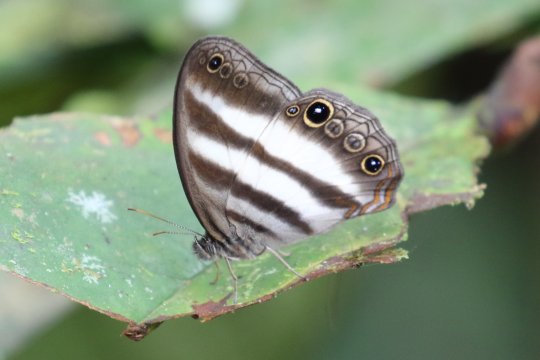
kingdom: Animalia
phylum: Arthropoda
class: Insecta
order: Lepidoptera
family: Nymphalidae
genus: Pareuptychia
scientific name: Pareuptychia hesione
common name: White Satyr
